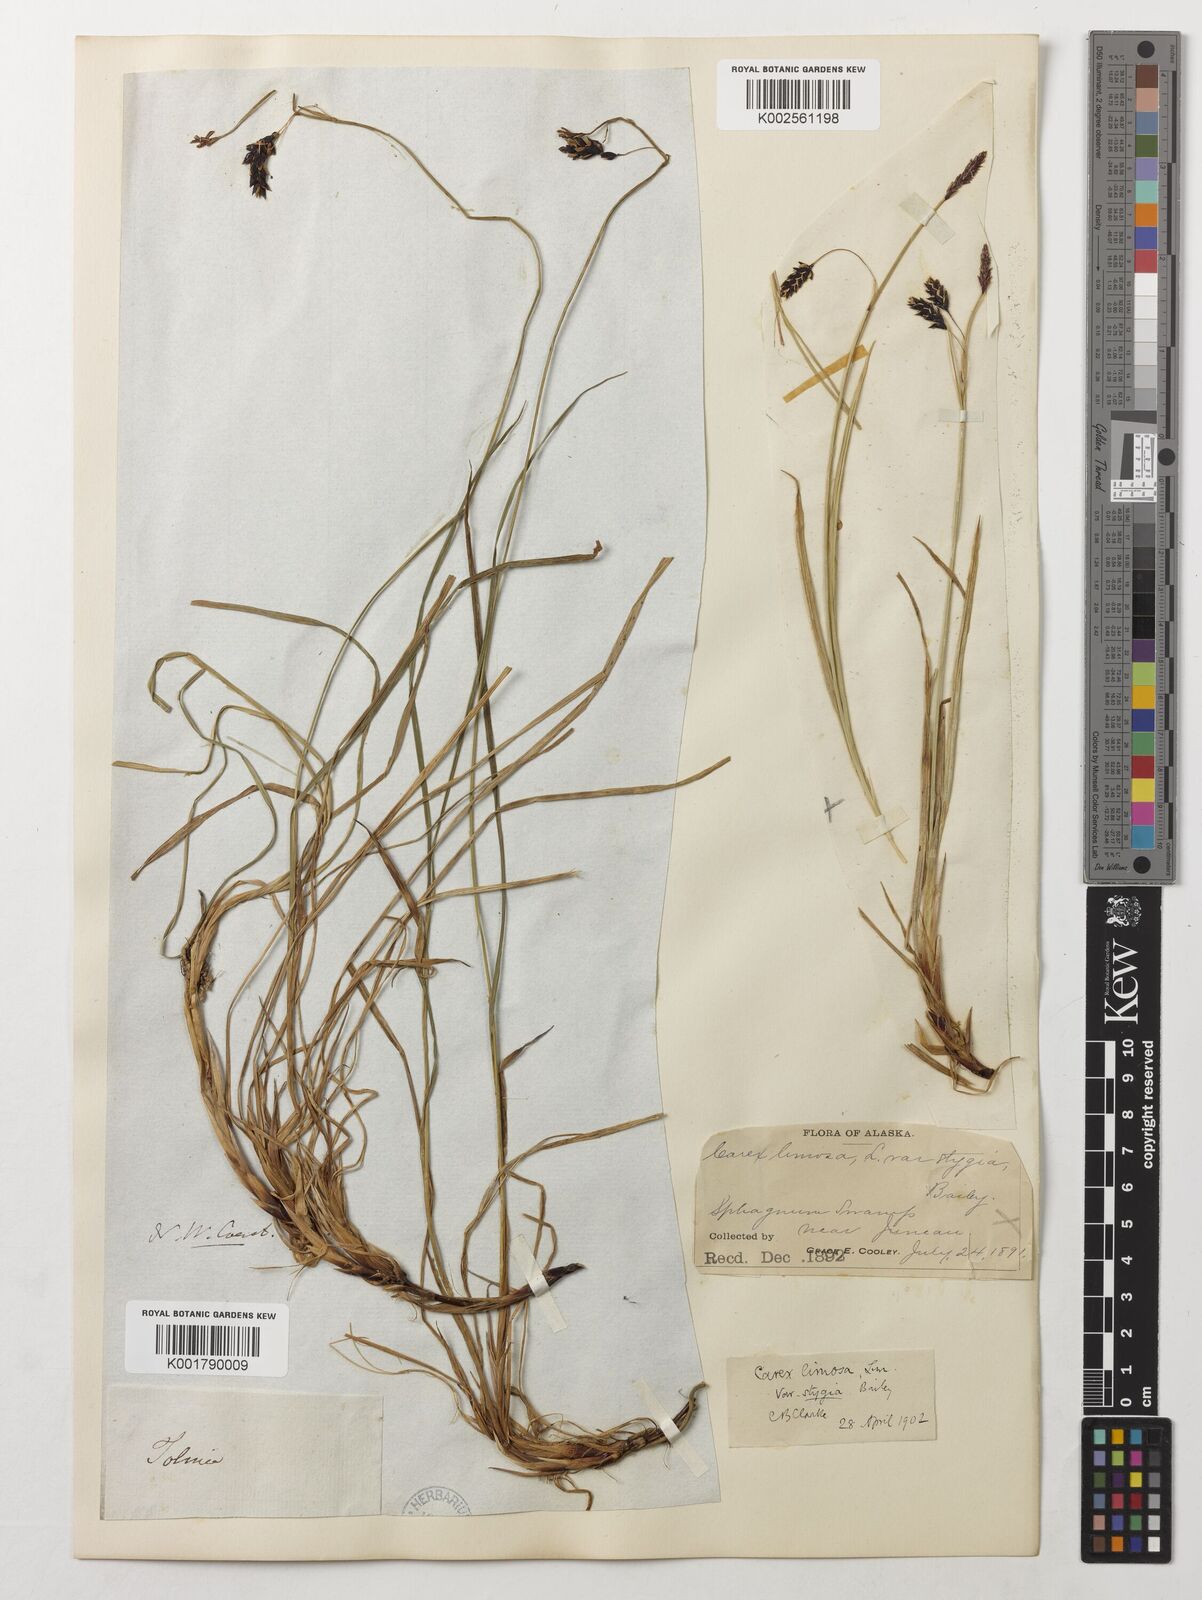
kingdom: Plantae
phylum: Tracheophyta
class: Liliopsida
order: Poales
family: Cyperaceae
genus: Carex
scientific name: Carex limosa
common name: Bog sedge
